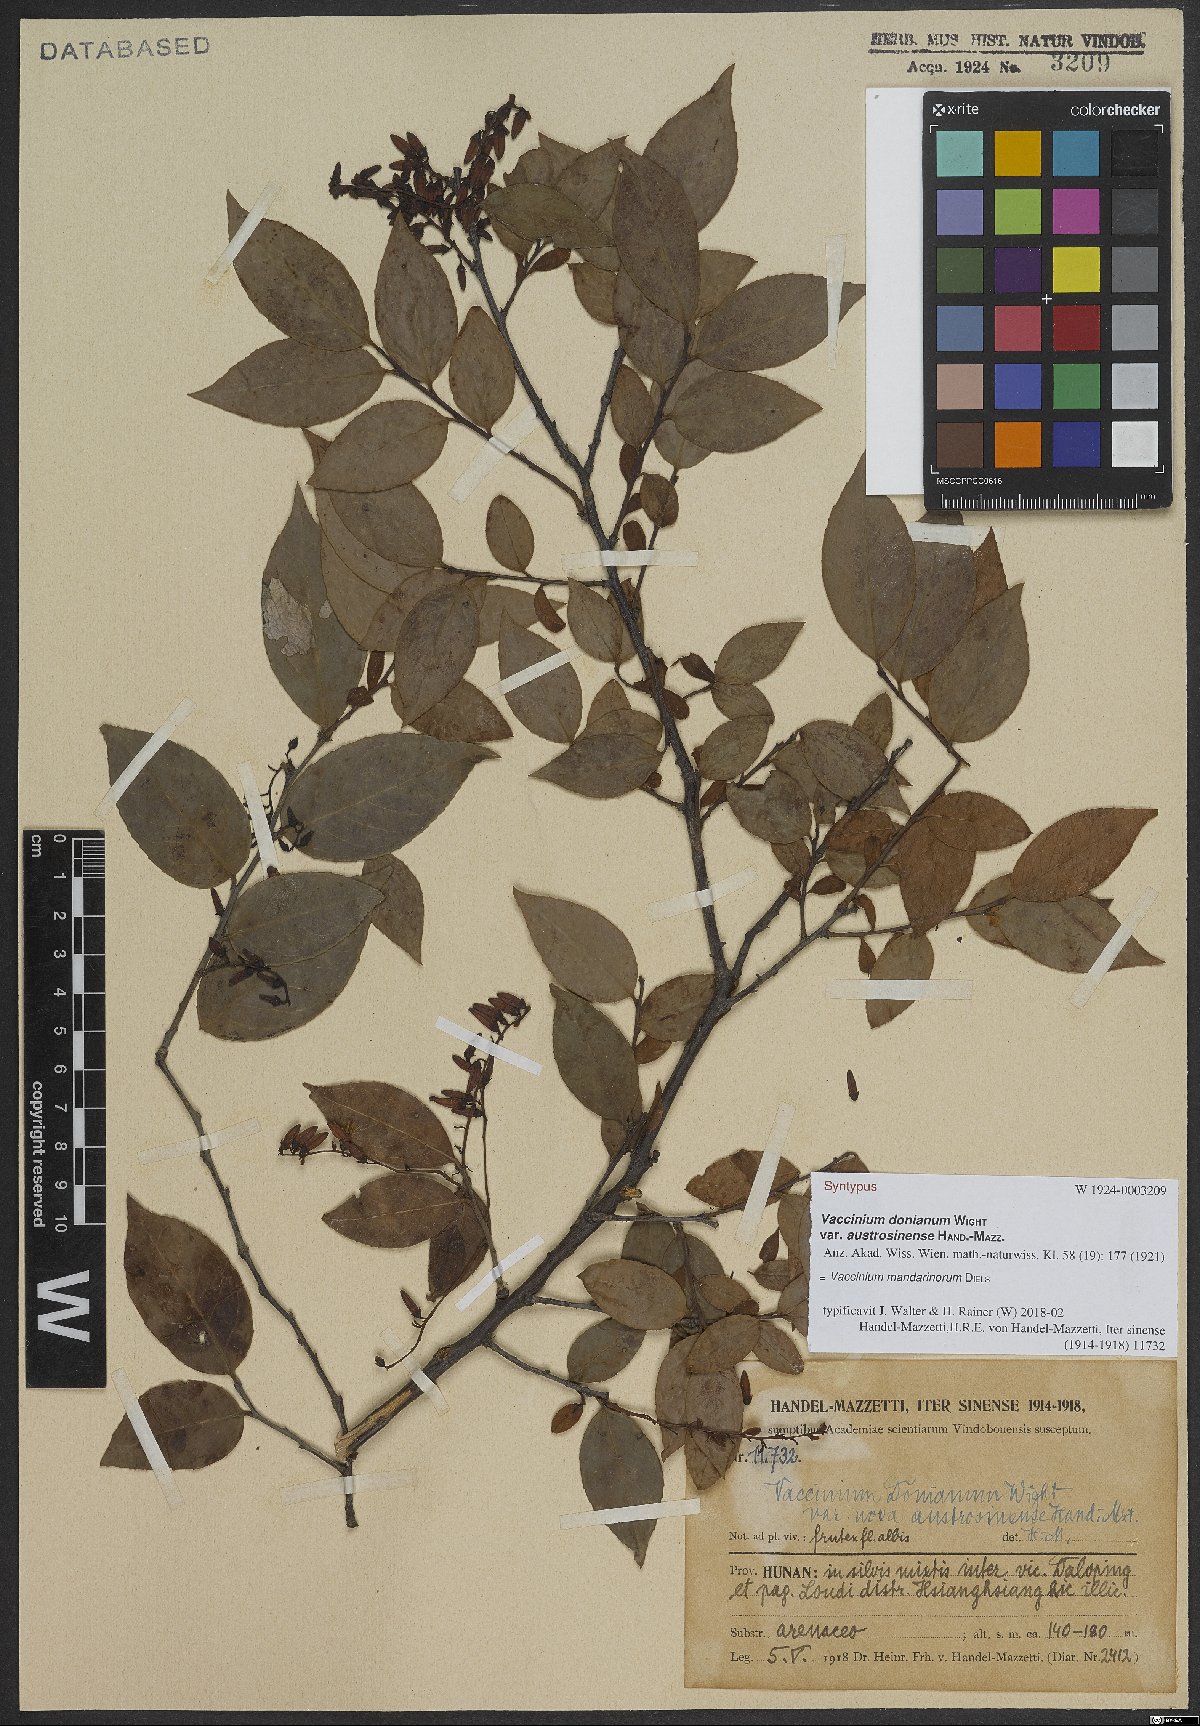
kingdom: Plantae
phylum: Tracheophyta
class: Magnoliopsida
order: Ericales
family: Ericaceae
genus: Vaccinium
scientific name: Vaccinium mandarinorum
